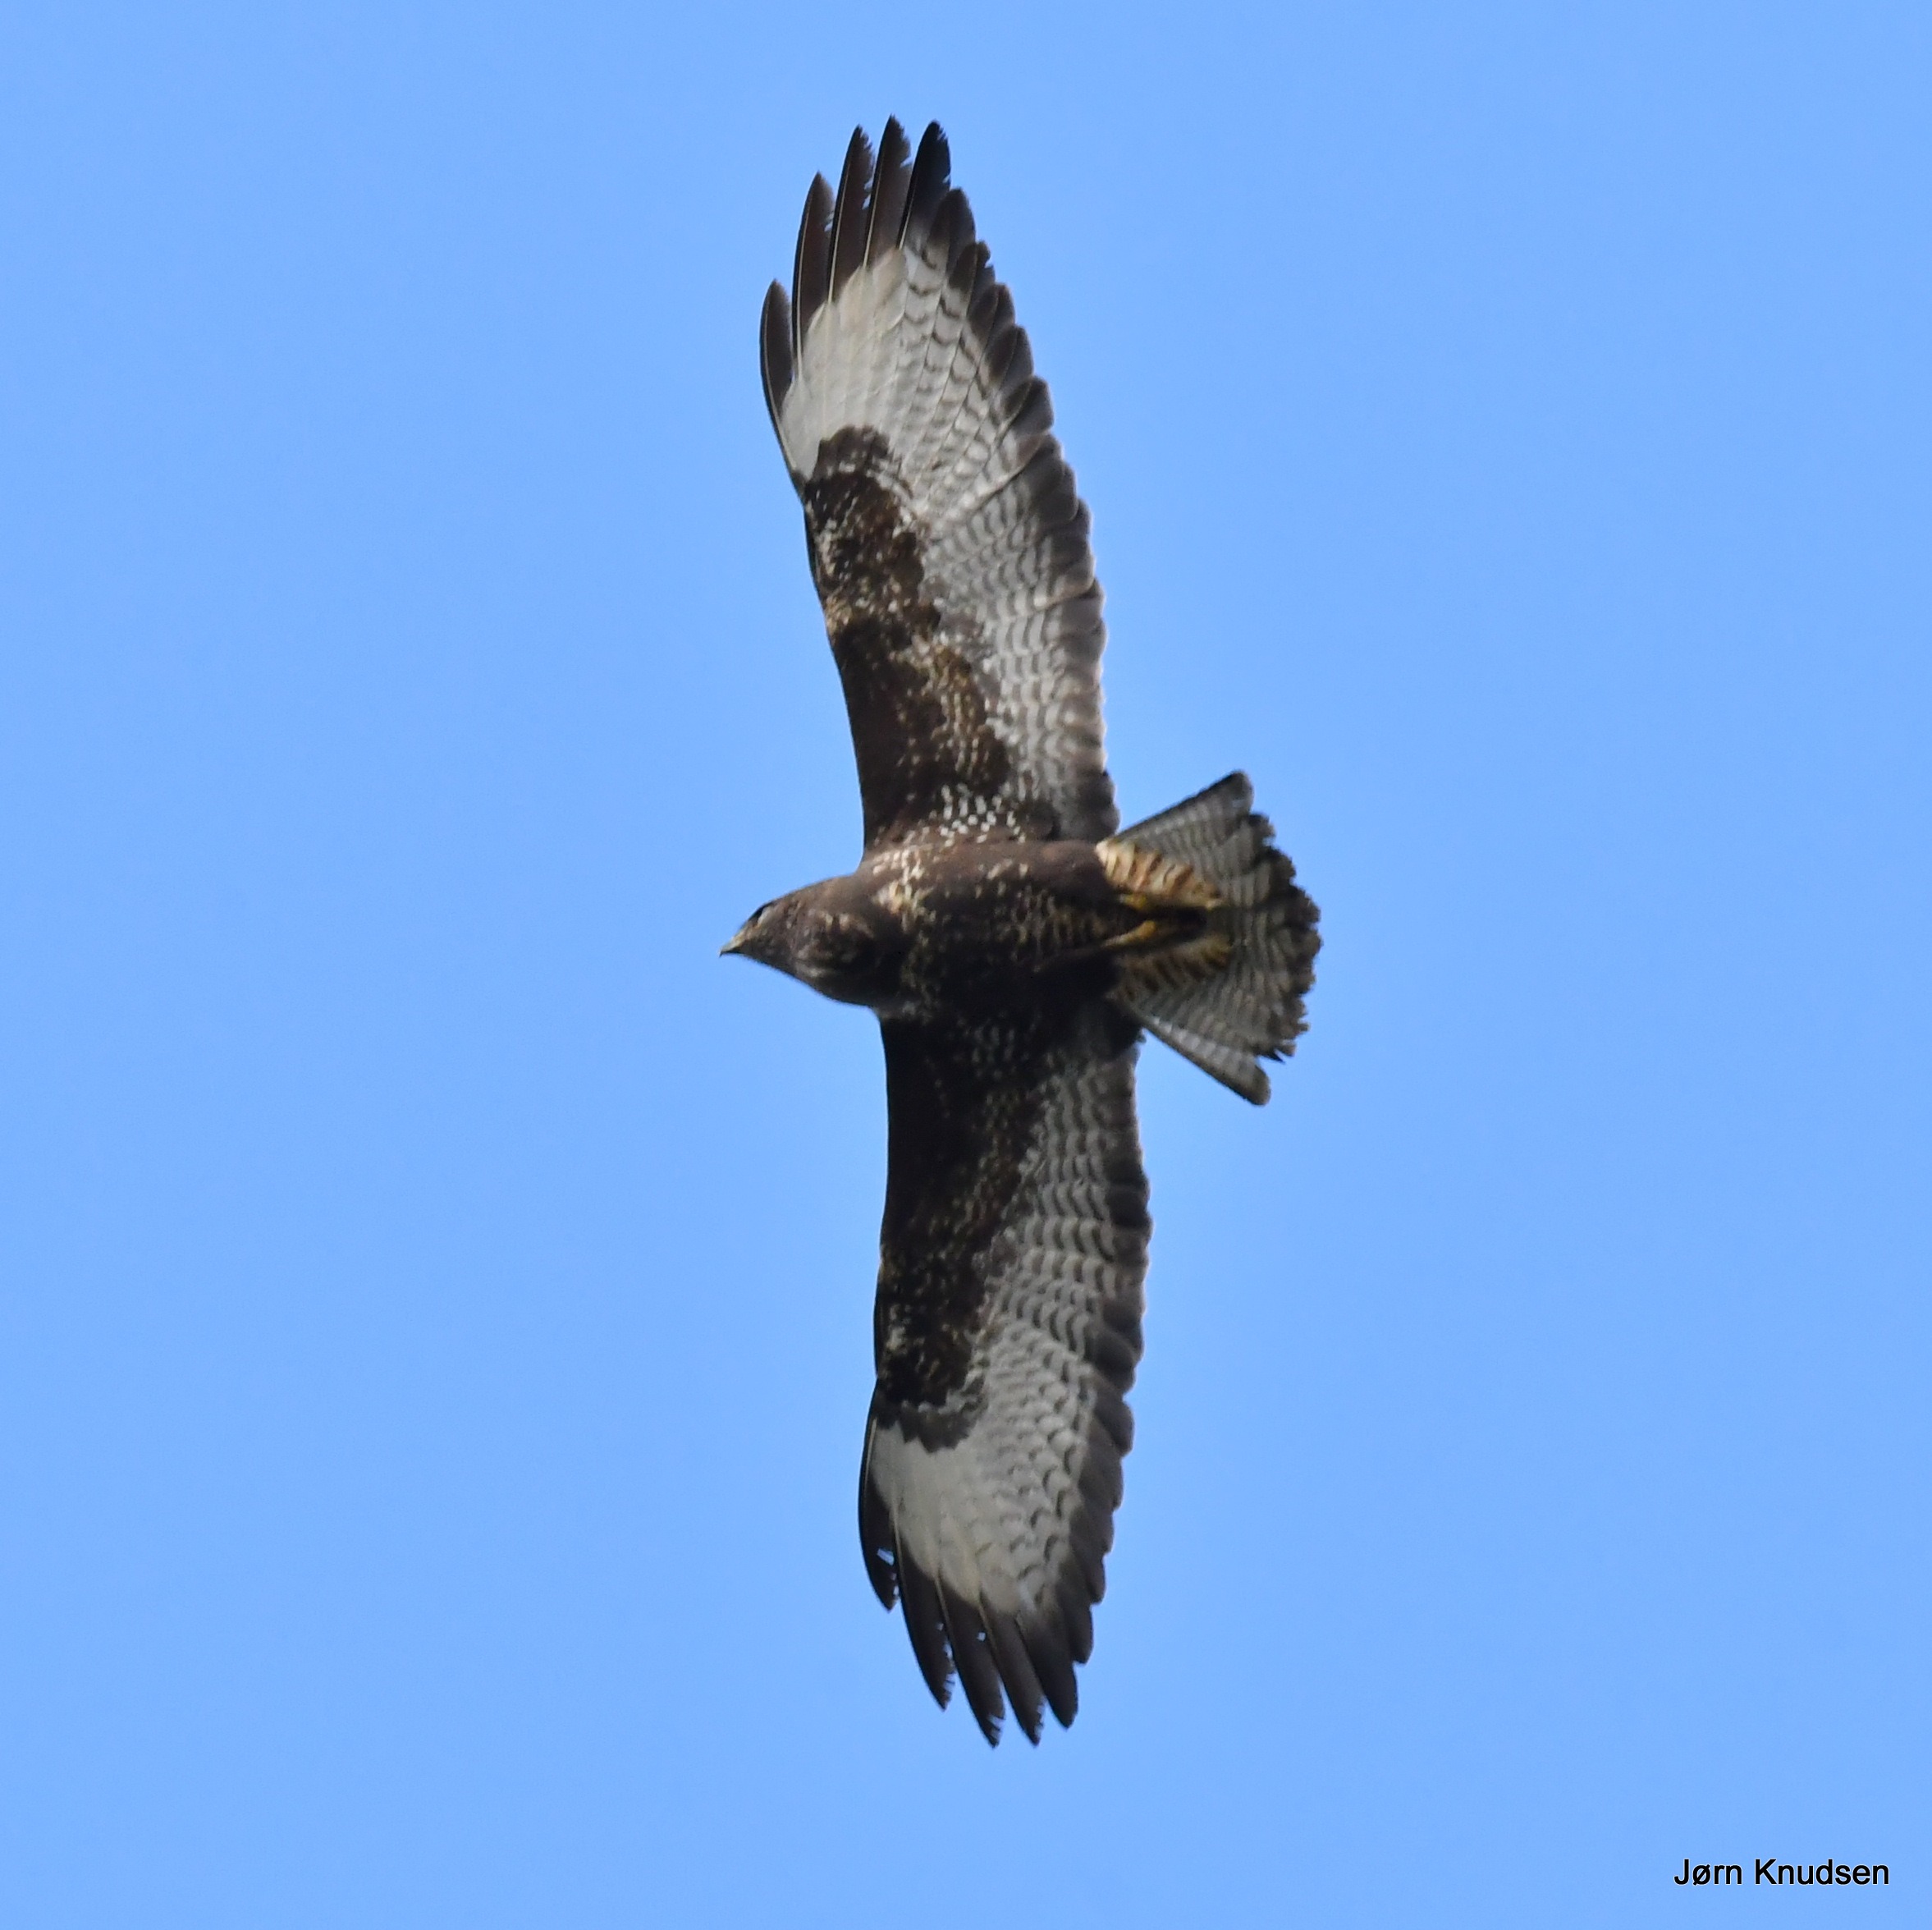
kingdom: Animalia
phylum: Chordata
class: Aves
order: Accipitriformes
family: Accipitridae
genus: Buteo
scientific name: Buteo buteo
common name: Musvåge
